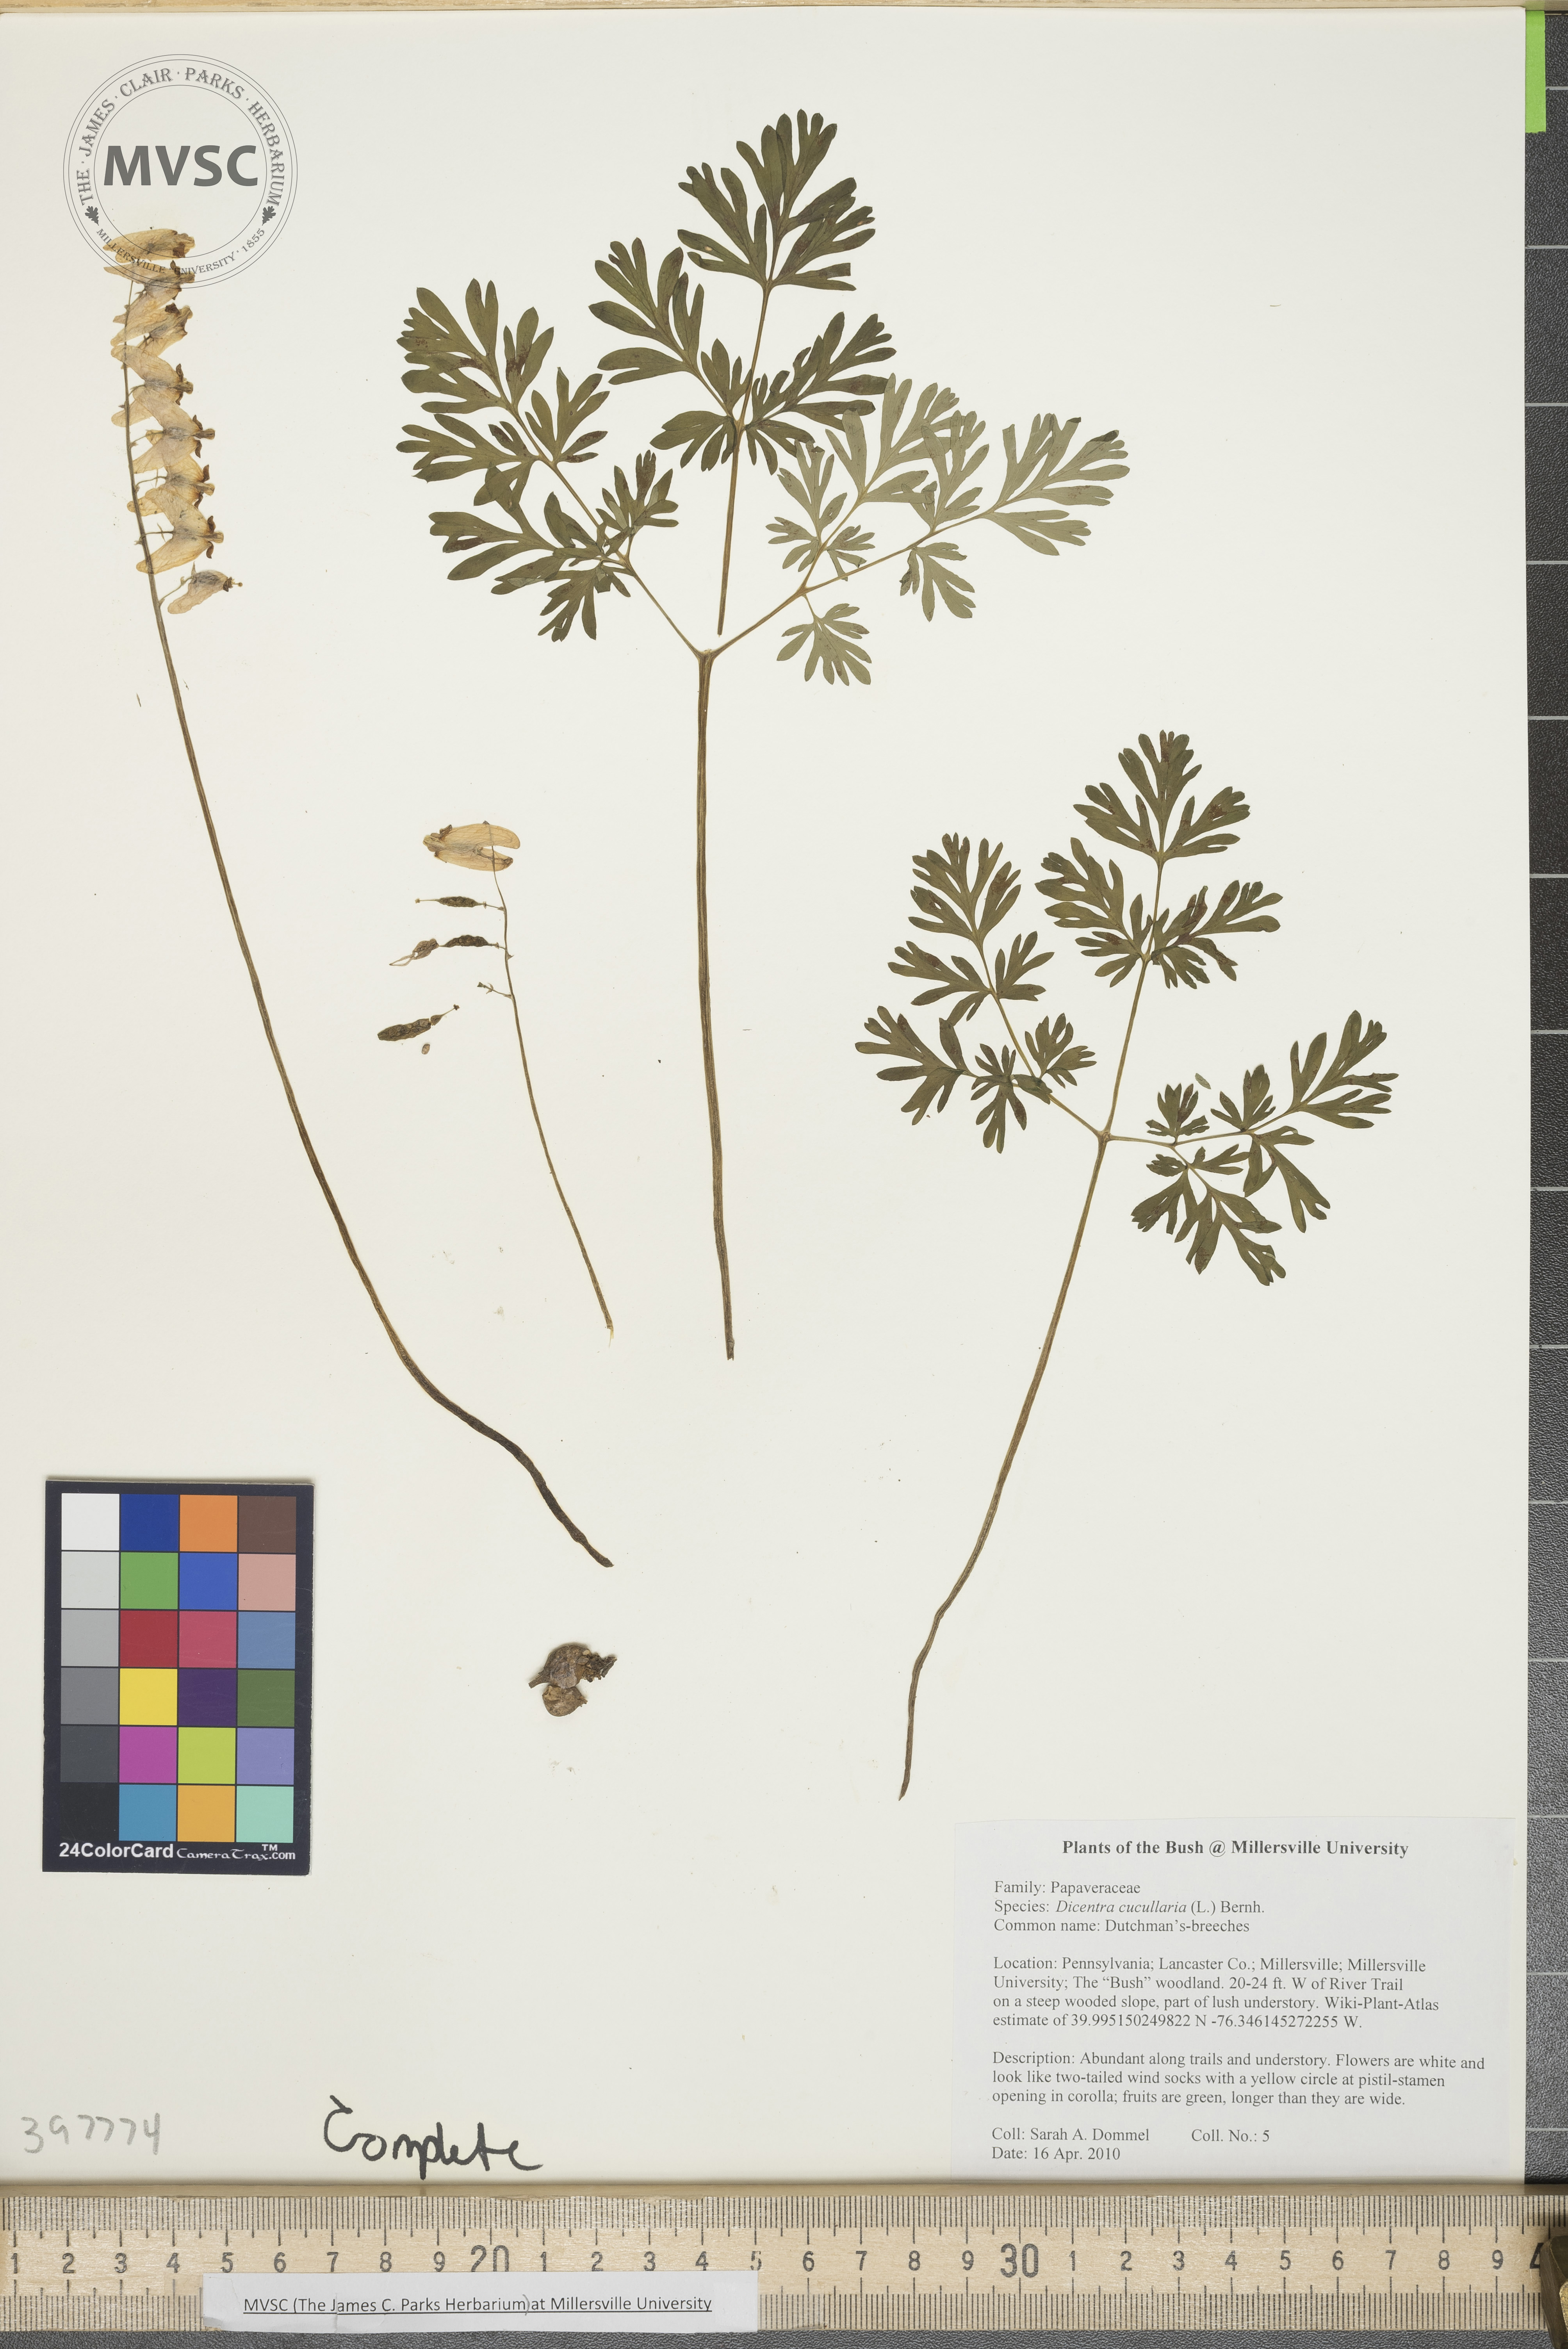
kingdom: Plantae
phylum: Tracheophyta
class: Magnoliopsida
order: Ranunculales
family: Papaveraceae
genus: Dicentra
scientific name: Dicentra cucullaria
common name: Dutchman's-breeches
